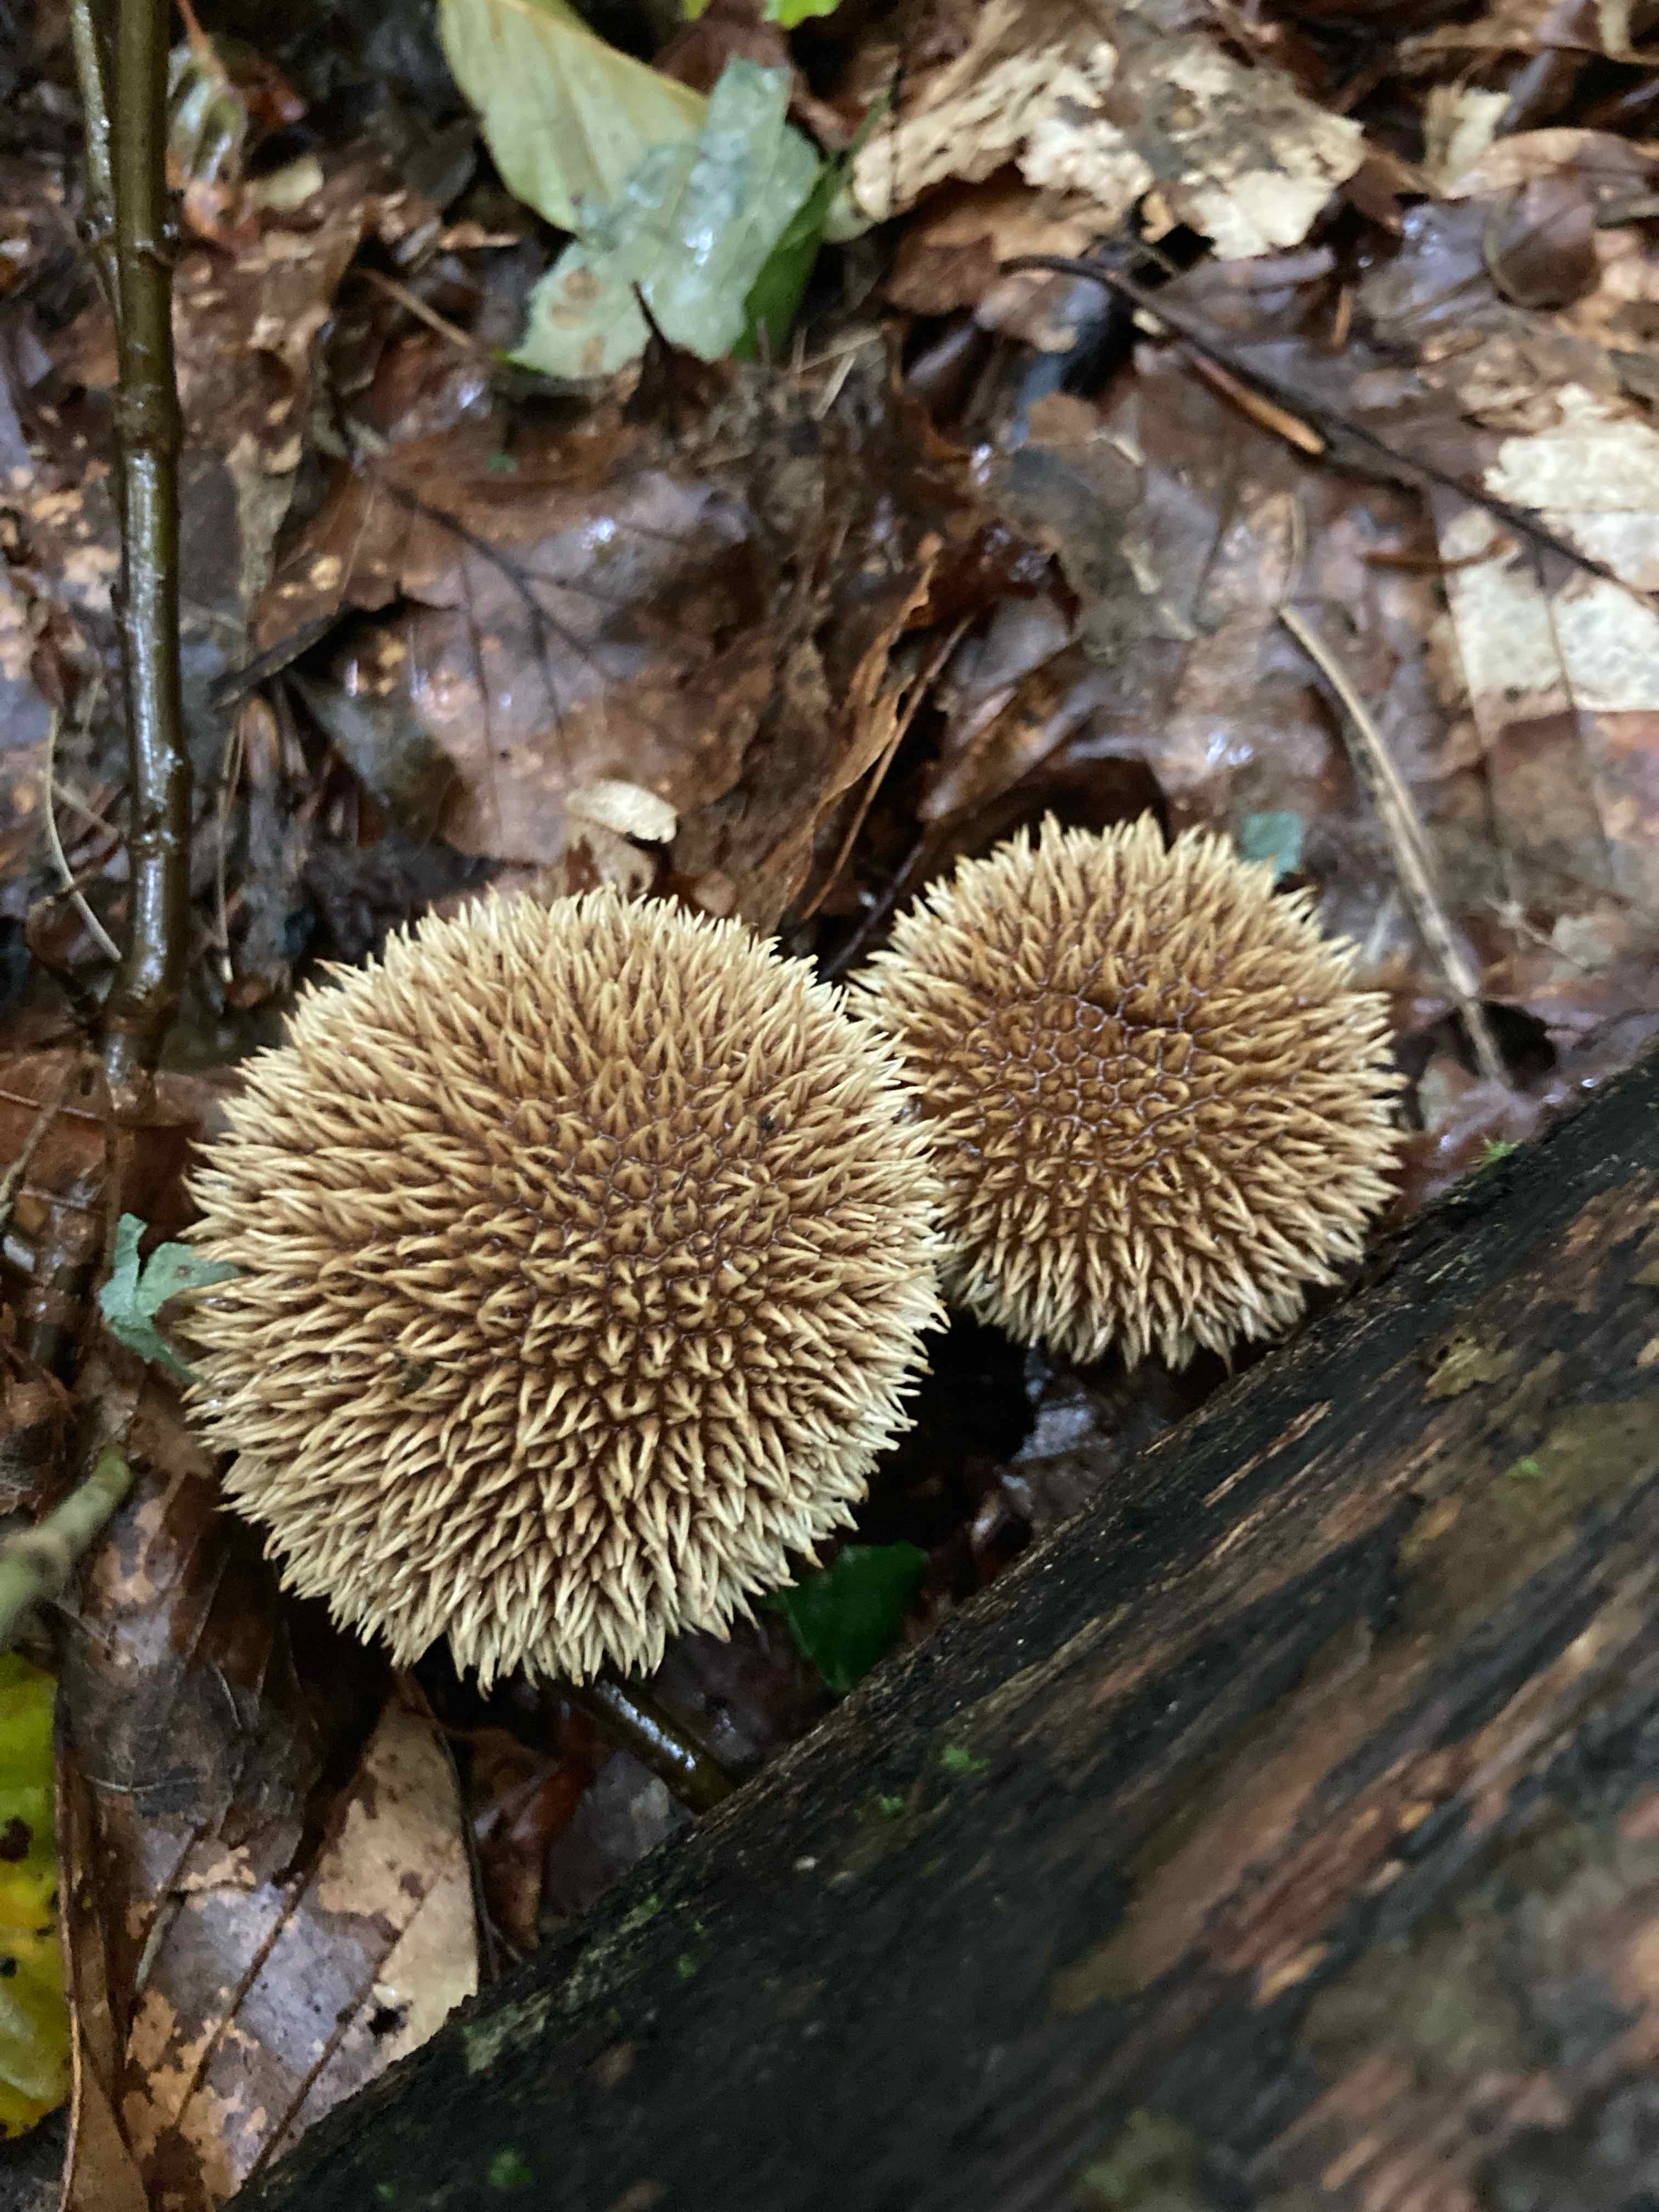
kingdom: Fungi
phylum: Basidiomycota
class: Agaricomycetes
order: Agaricales
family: Lycoperdaceae
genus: Lycoperdon
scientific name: Lycoperdon echinatum
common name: pindsvine-støvbold
